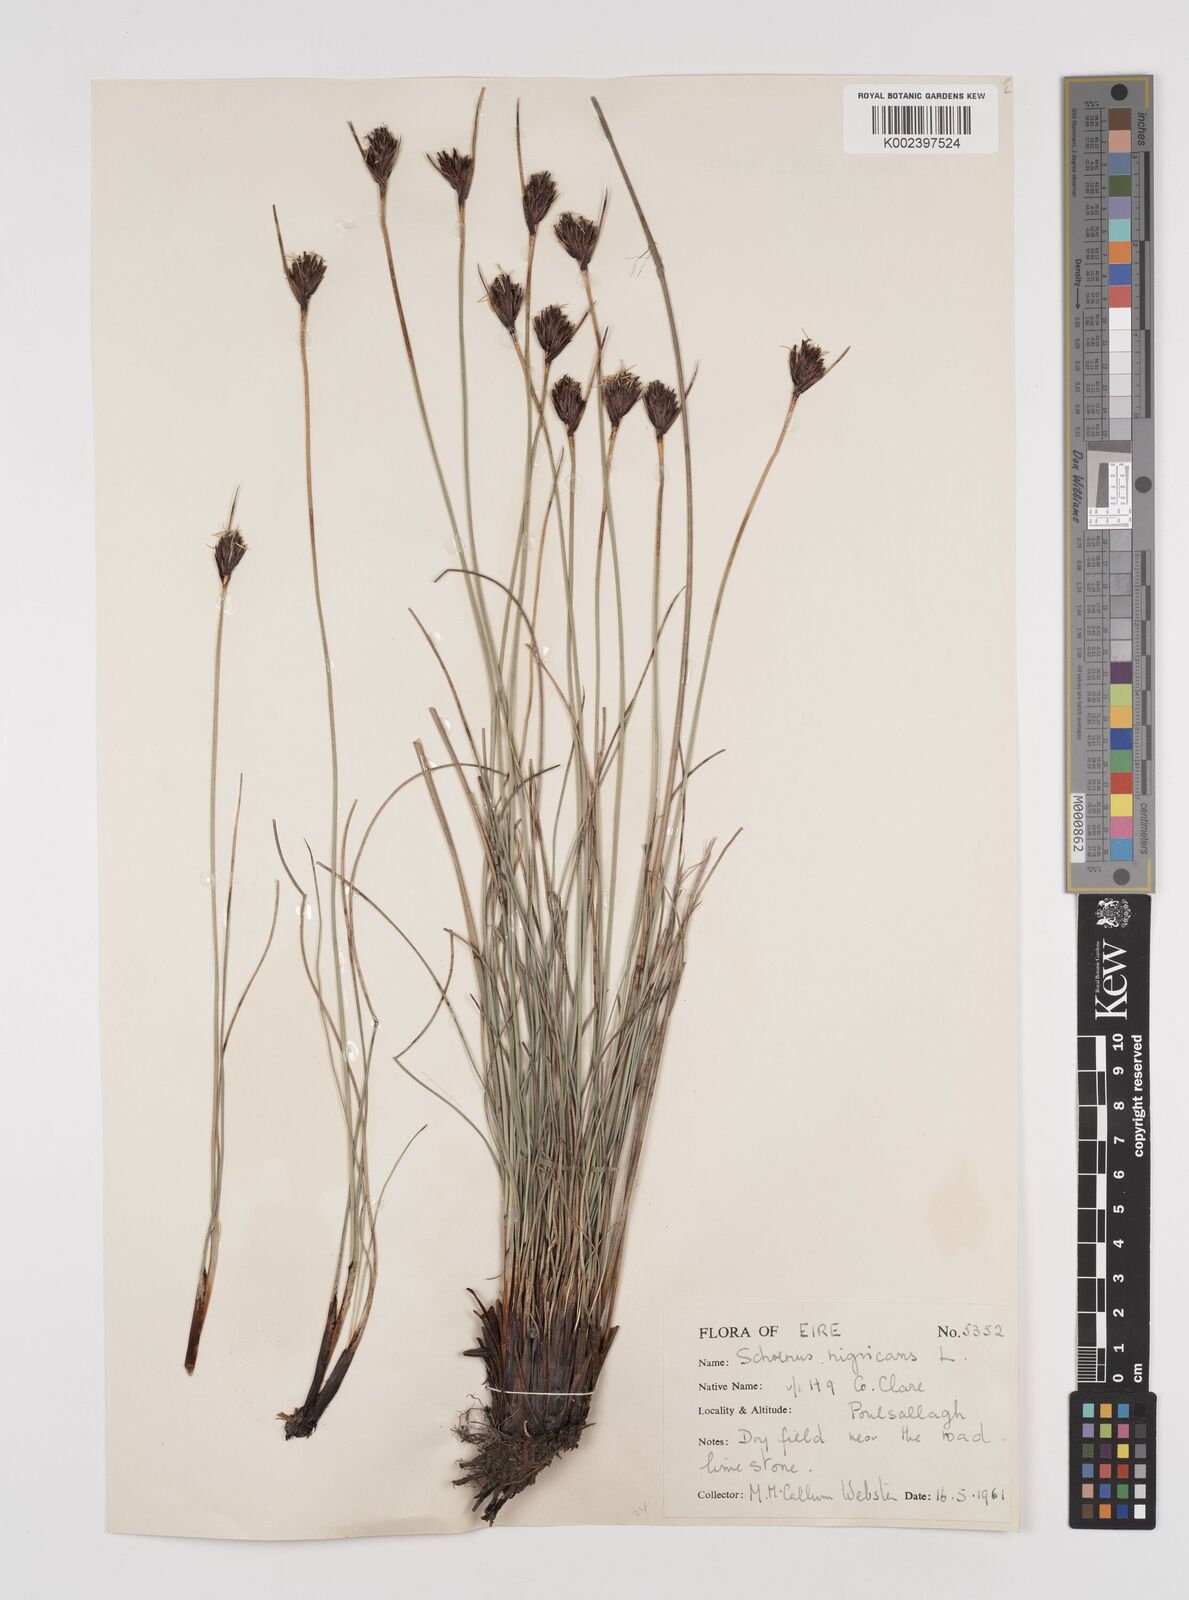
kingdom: Plantae
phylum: Tracheophyta
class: Liliopsida
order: Poales
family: Cyperaceae
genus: Schoenus
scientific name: Schoenus nigricans
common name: Black bog-rush
